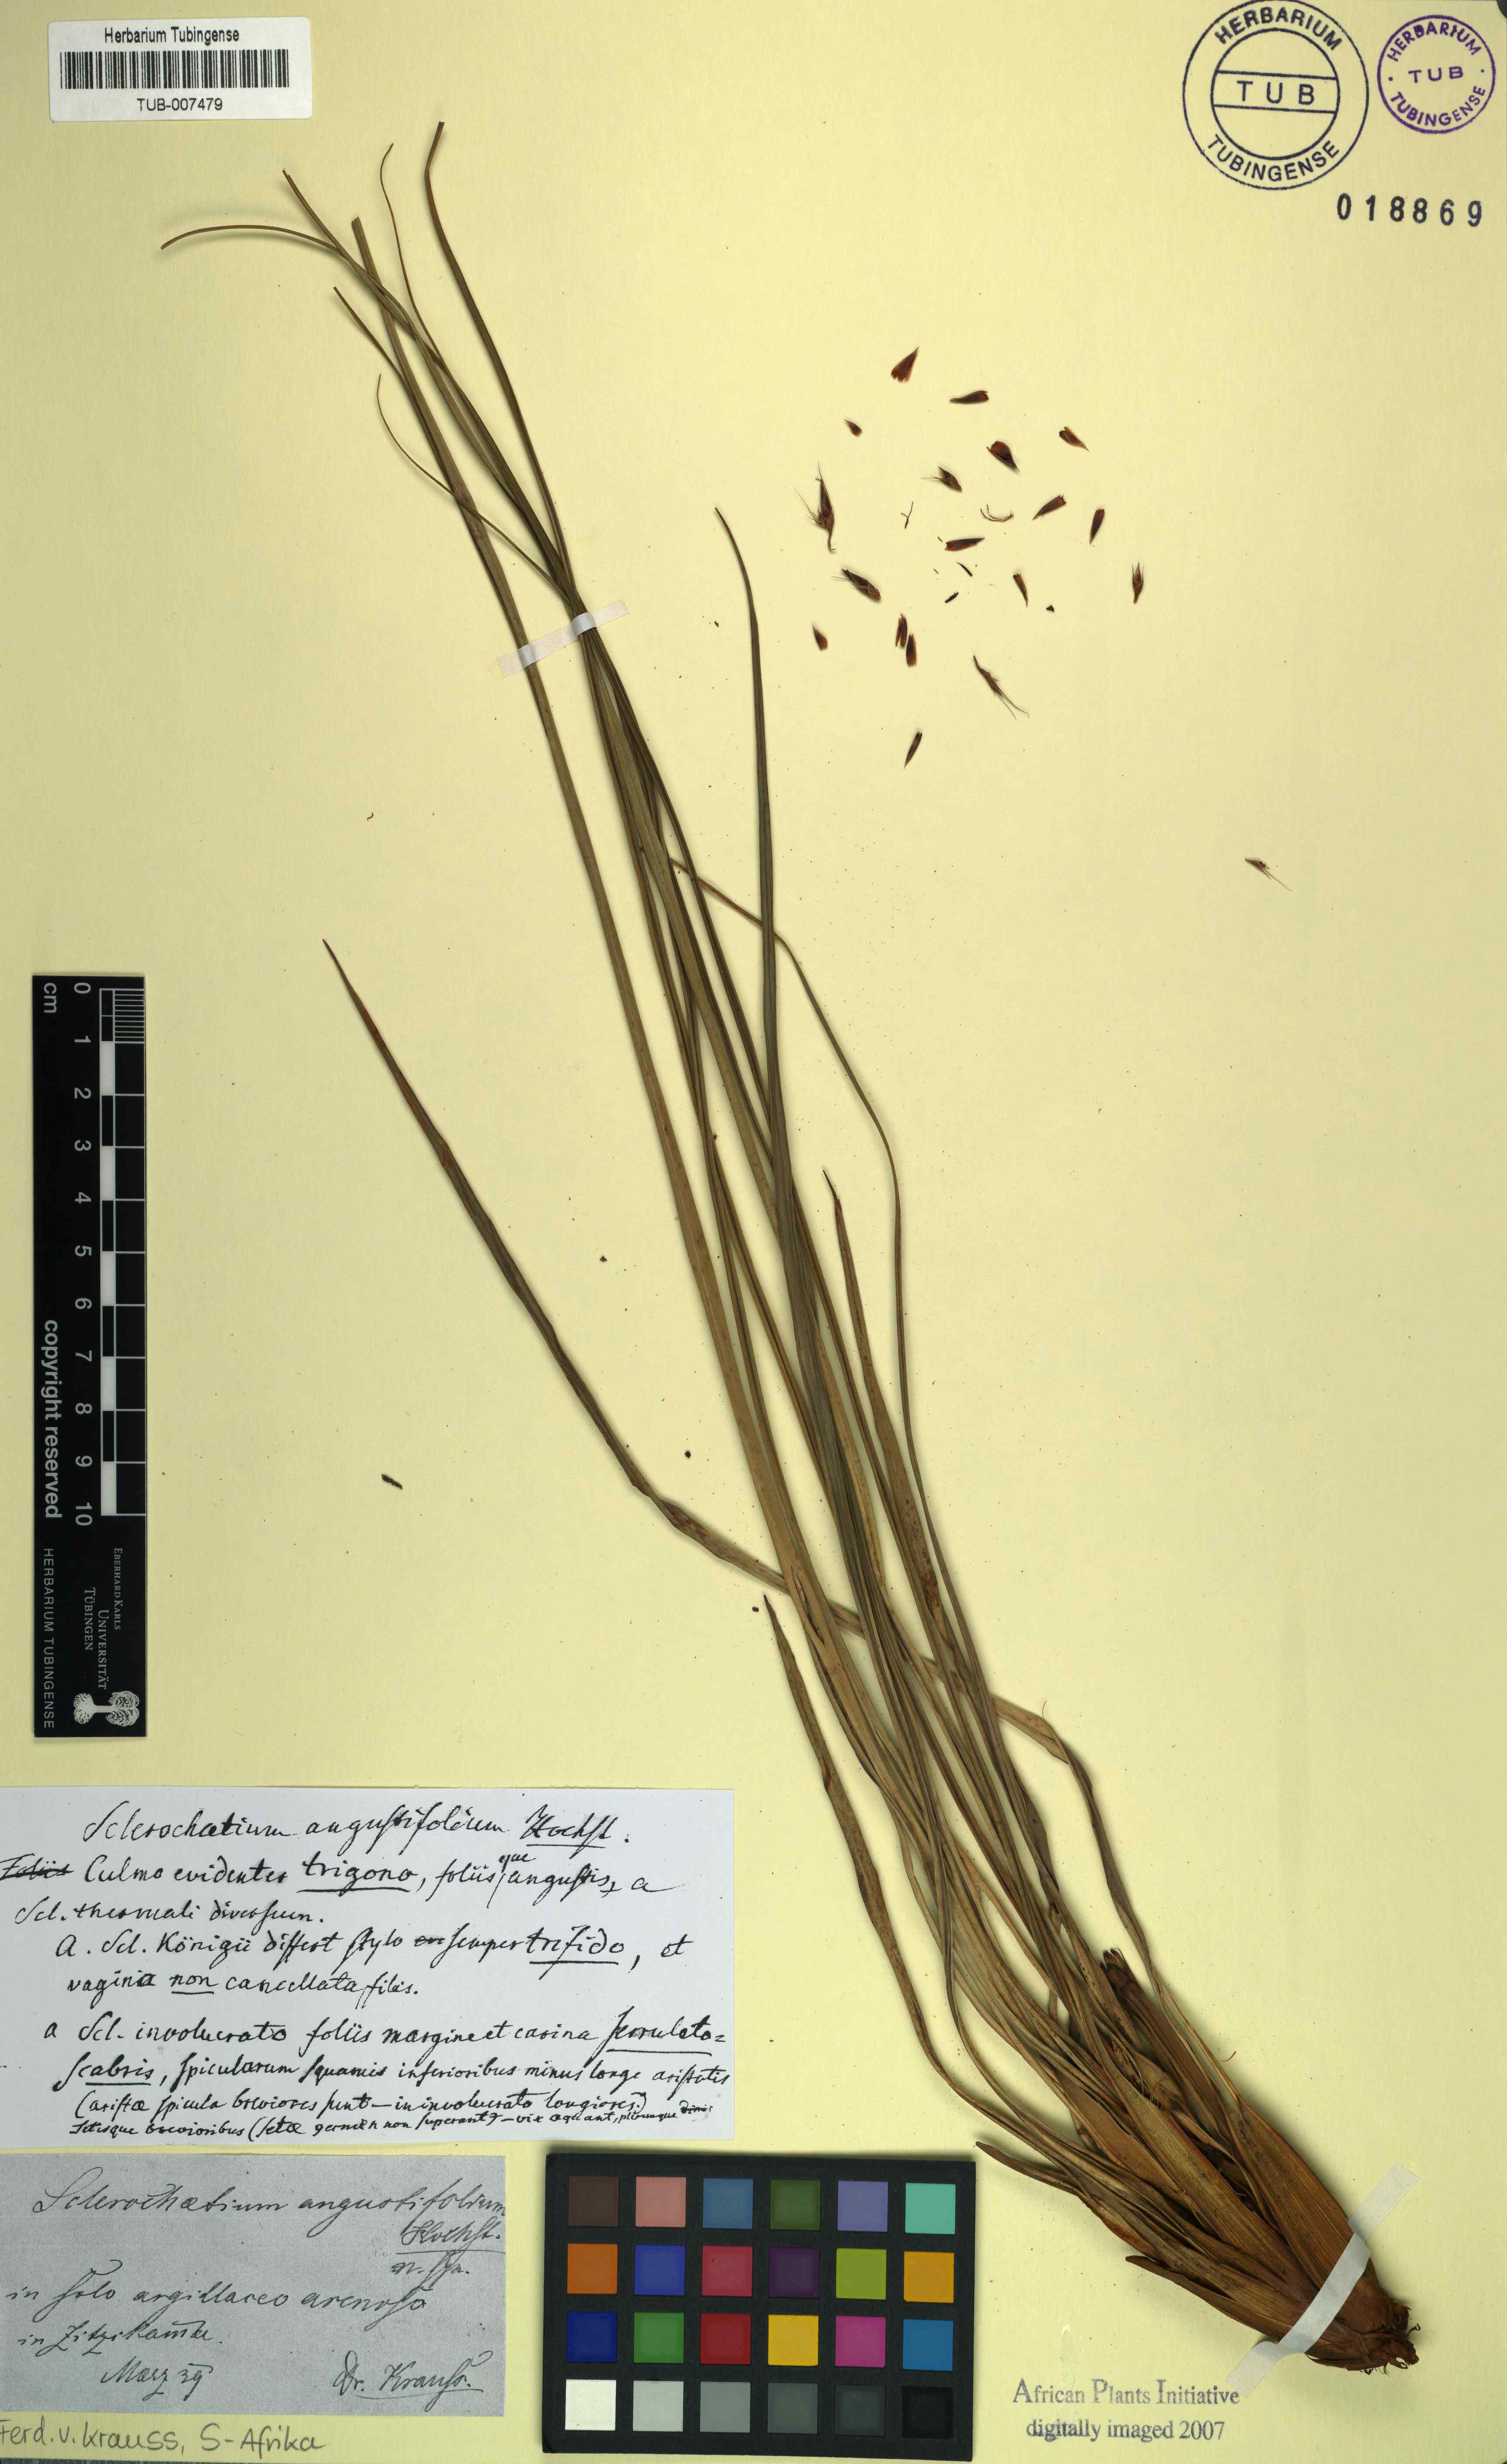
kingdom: Plantae
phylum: Tracheophyta
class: Liliopsida
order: Poales
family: Cyperaceae
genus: Tetraria
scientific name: Tetraria bromoides
